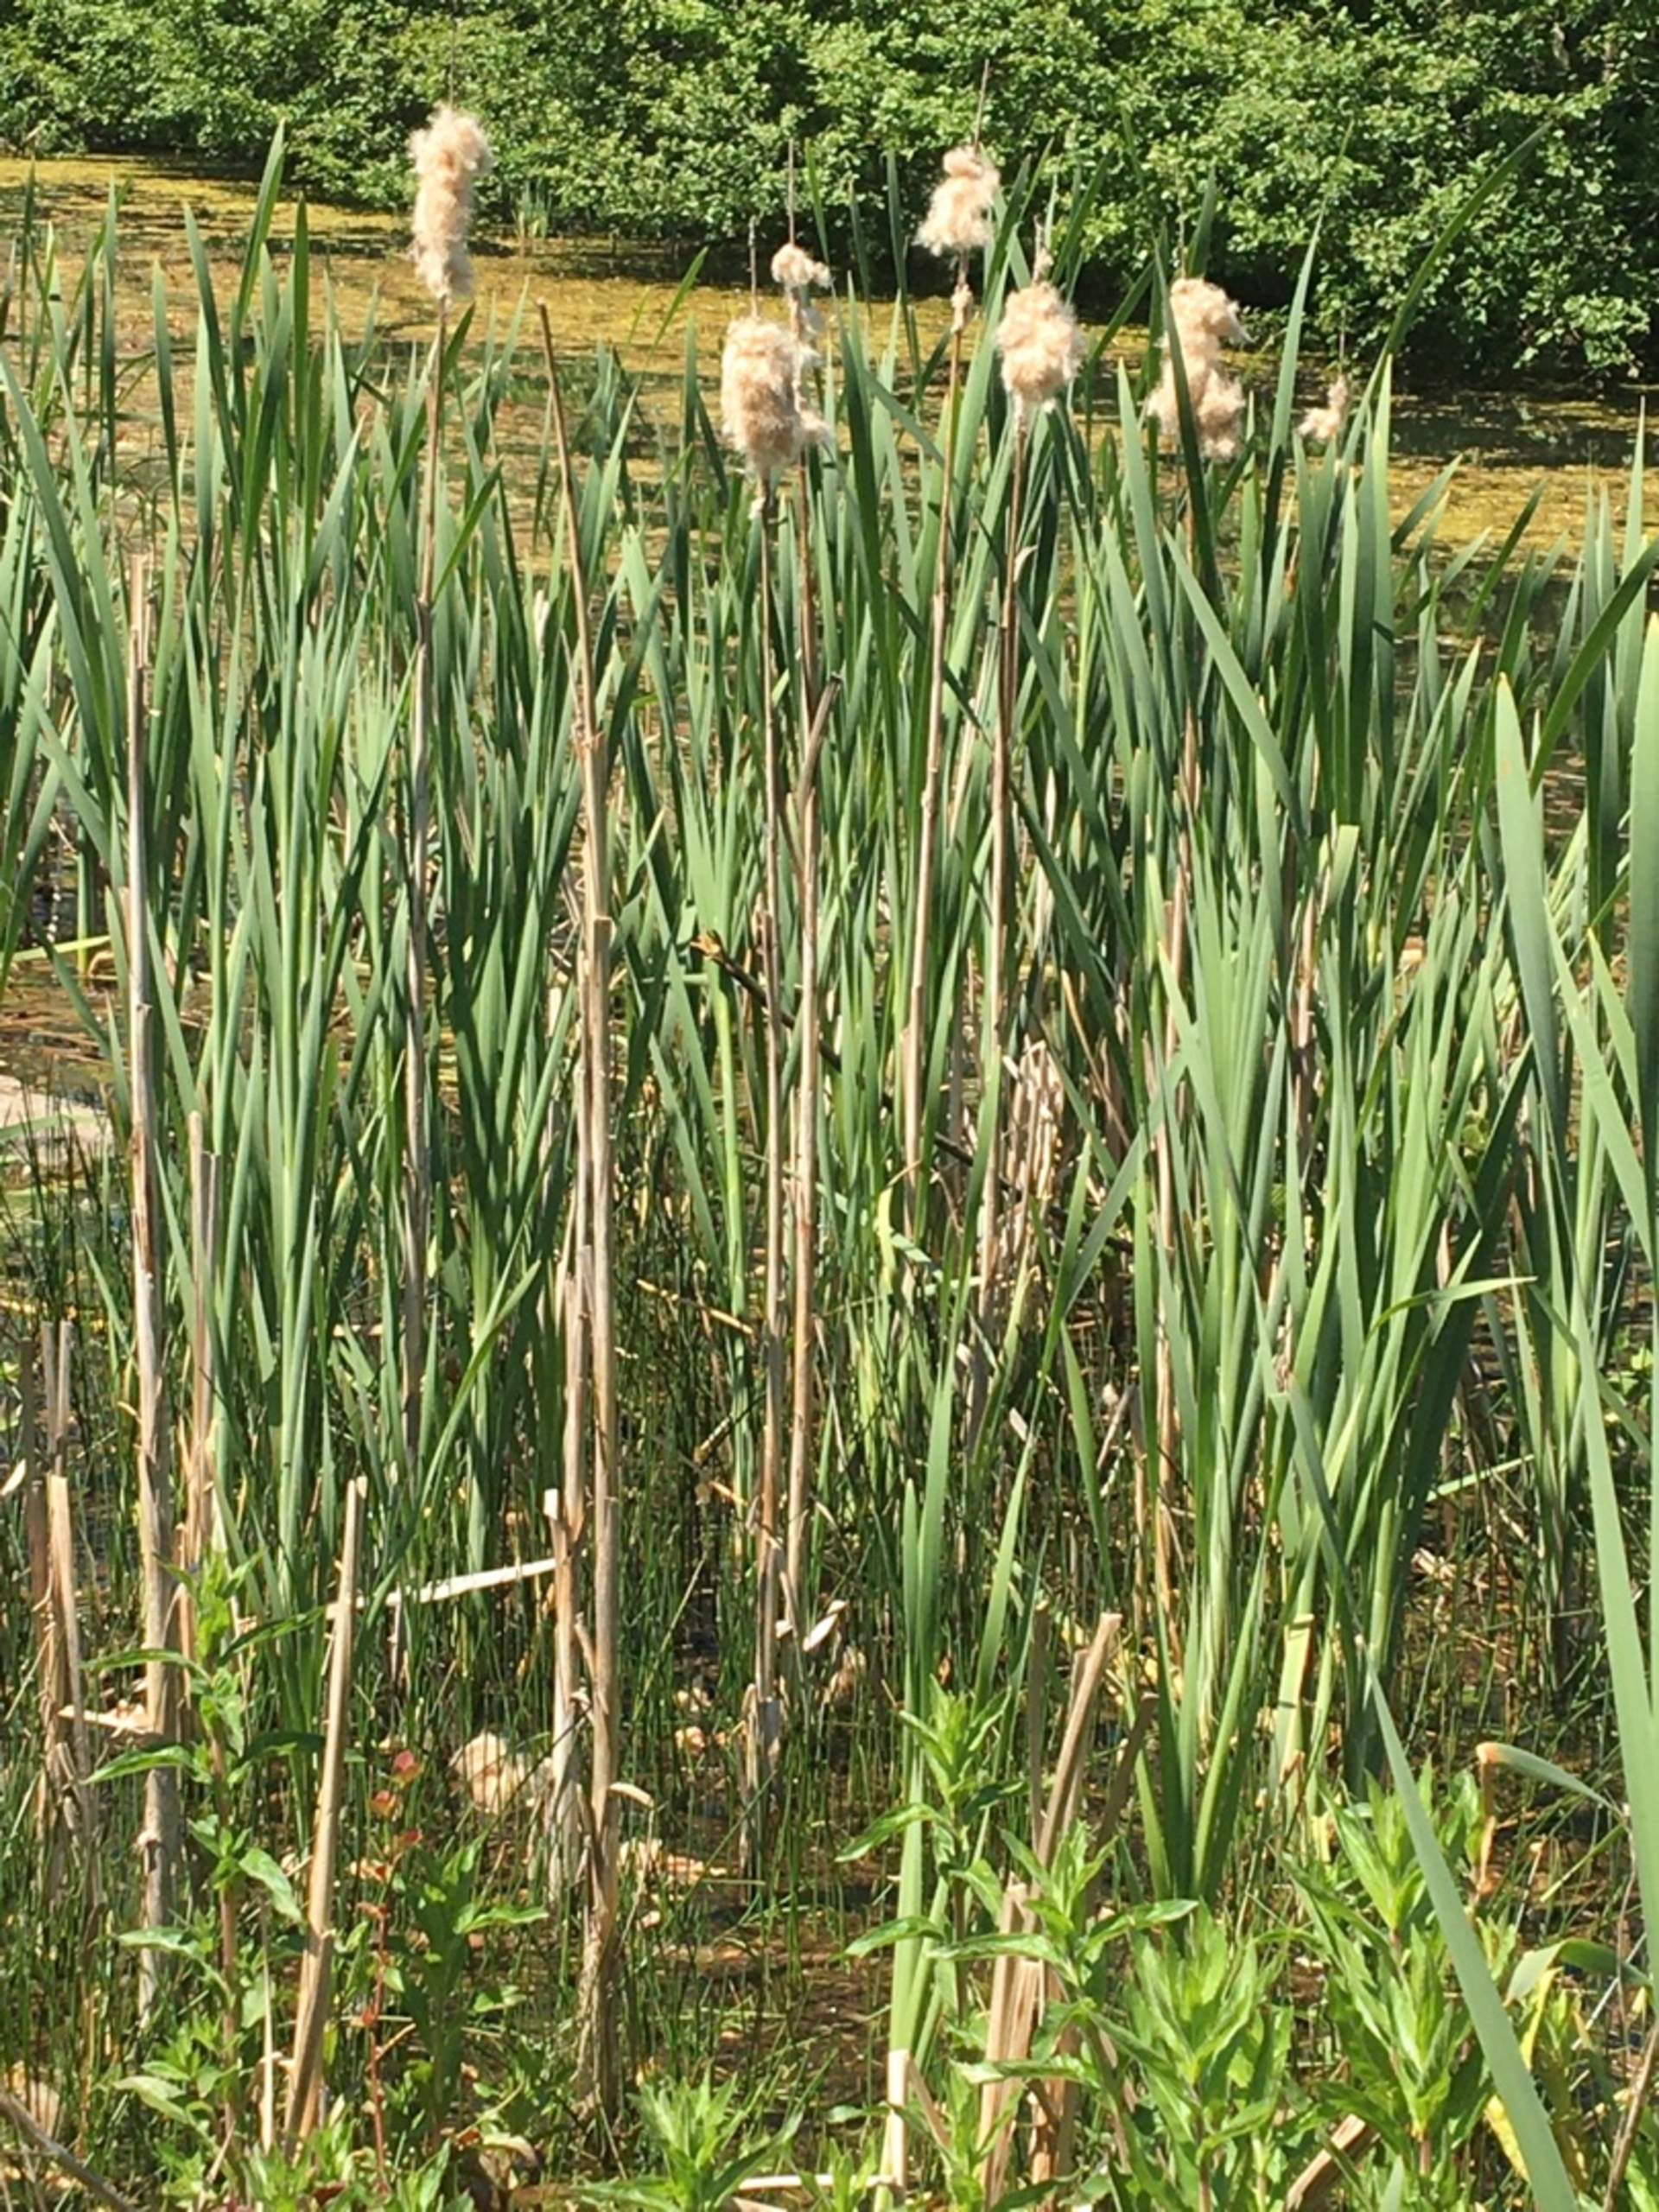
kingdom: Plantae
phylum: Tracheophyta
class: Liliopsida
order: Poales
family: Typhaceae
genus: Typha
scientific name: Typha latifolia
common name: Bredbladet dunhammer
